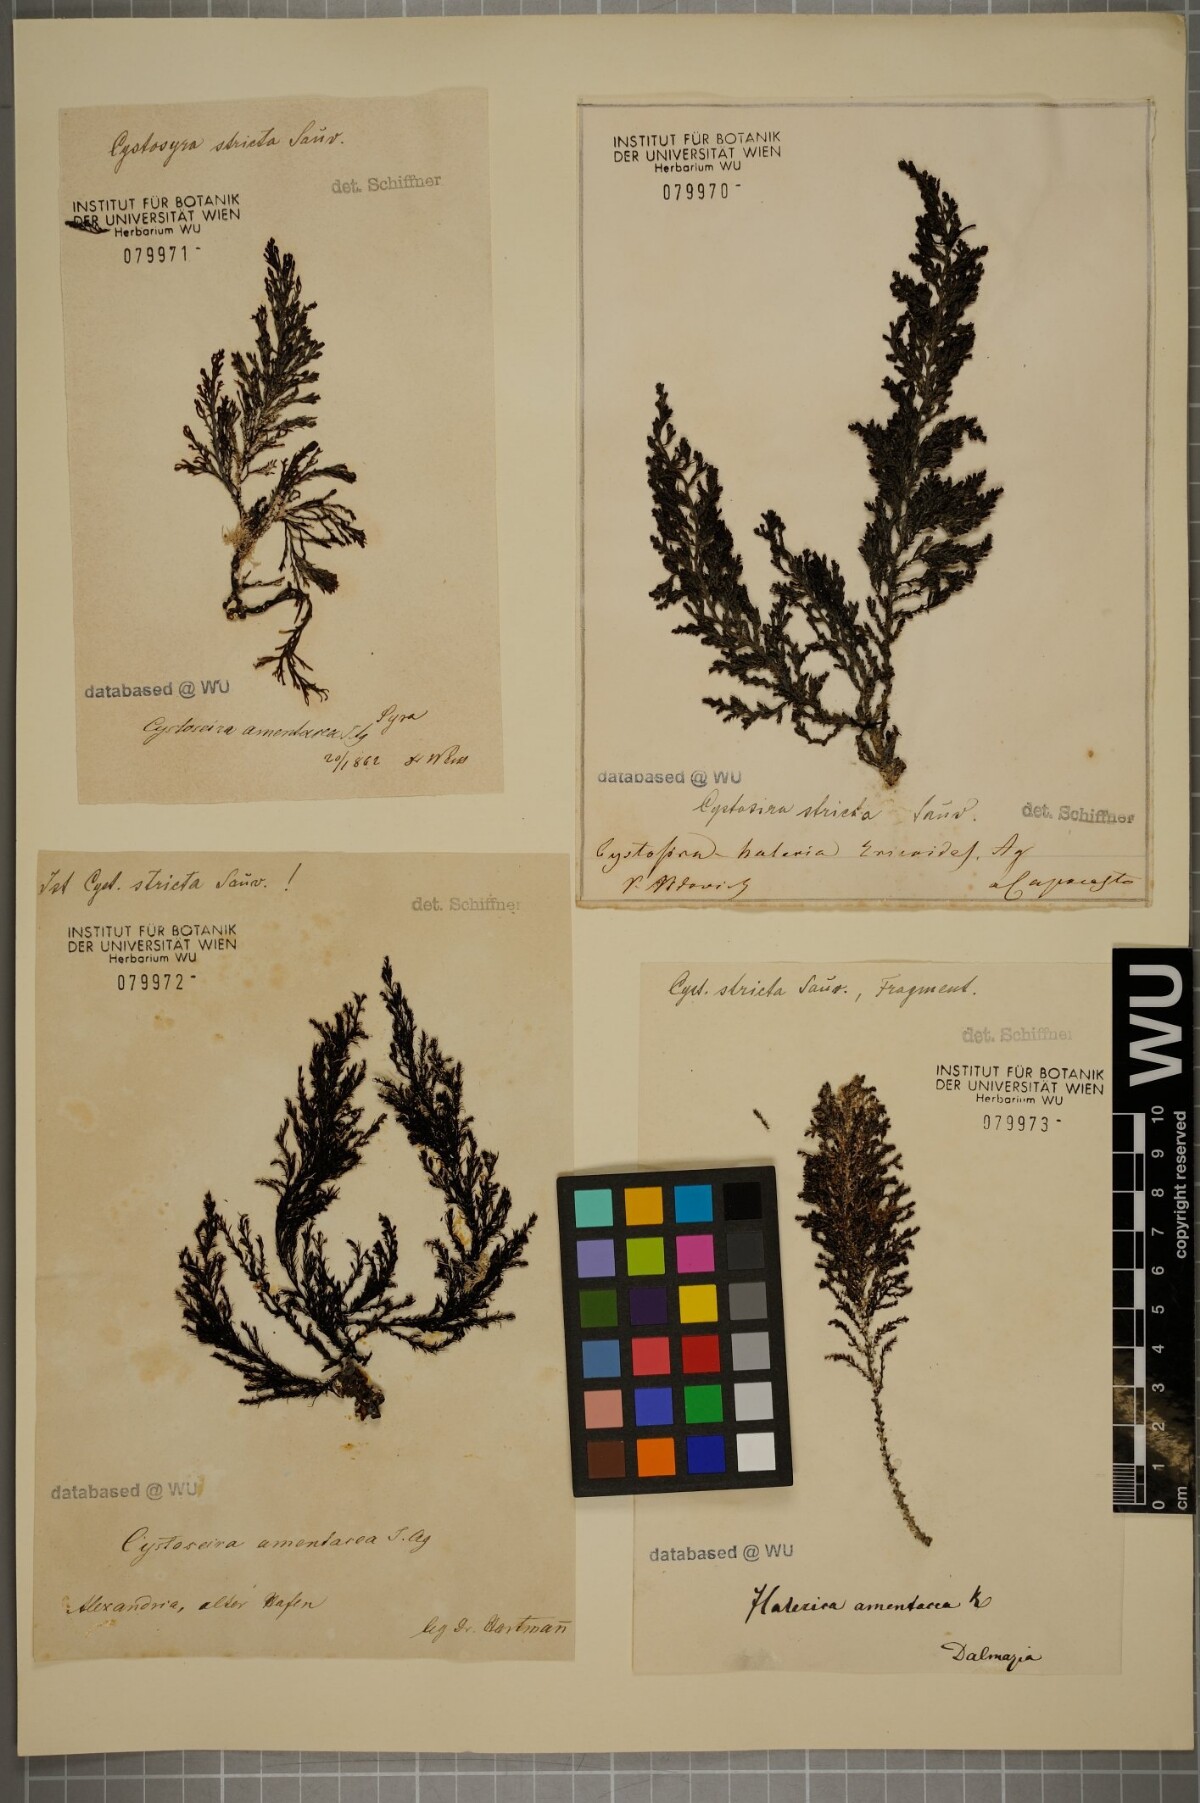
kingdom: Chromista
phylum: Ochrophyta
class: Phaeophyceae
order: Fucales
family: Sargassaceae
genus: Cystoseira
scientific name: Cystoseira Ericaria amentacea
